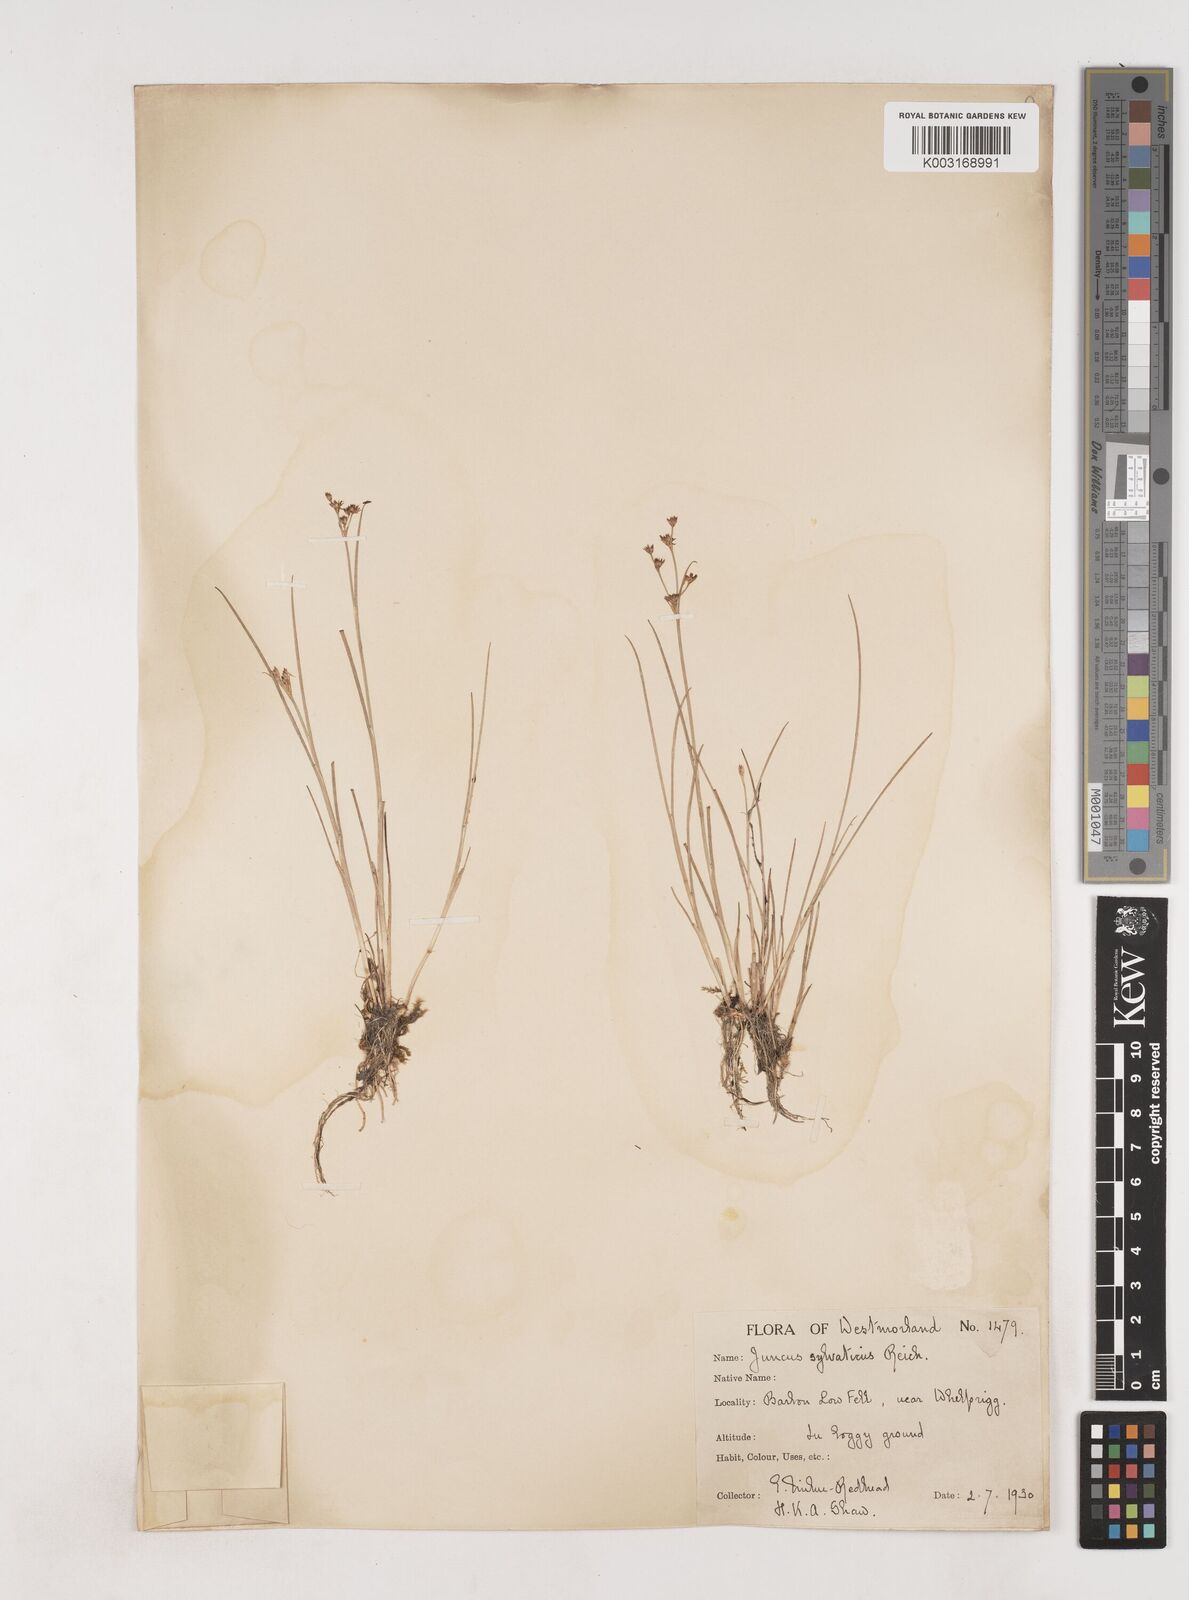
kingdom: Plantae
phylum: Tracheophyta
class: Liliopsida
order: Poales
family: Juncaceae
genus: Juncus
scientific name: Juncus bulbosus
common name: Bulbous rush
